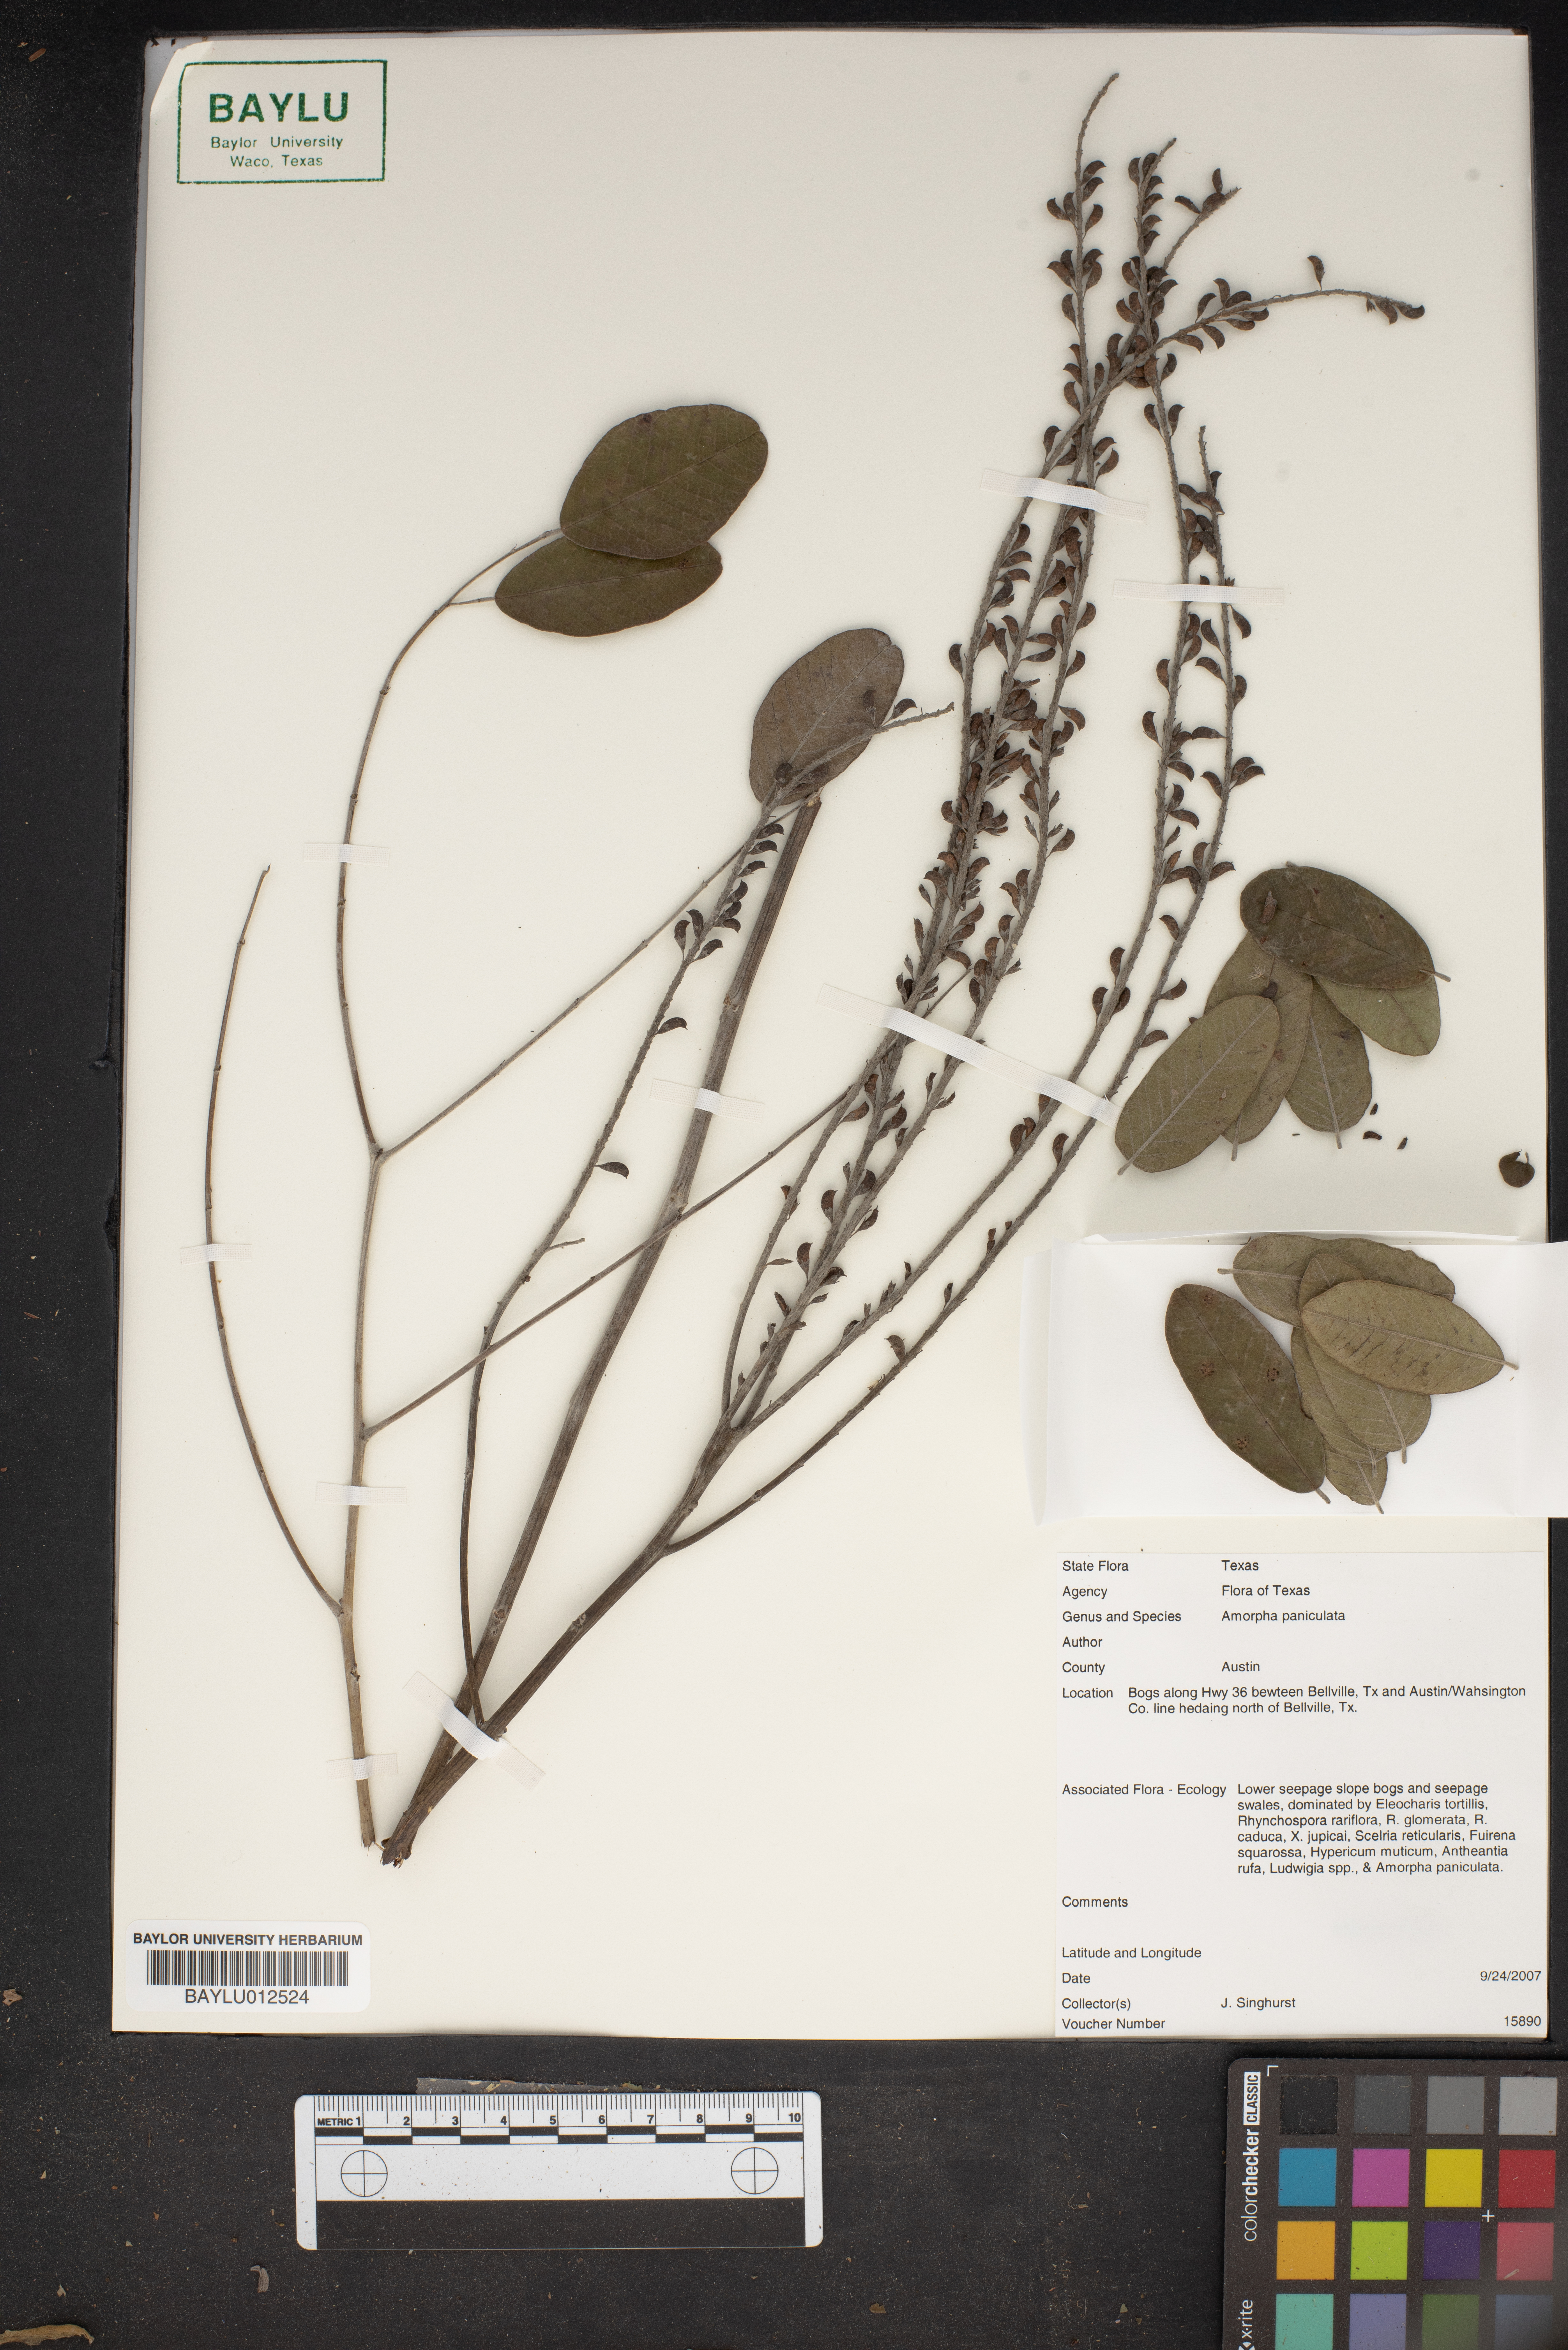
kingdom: Plantae
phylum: Tracheophyta
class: Magnoliopsida
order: Fabales
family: Fabaceae
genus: Amorpha
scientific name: Amorpha paniculata
